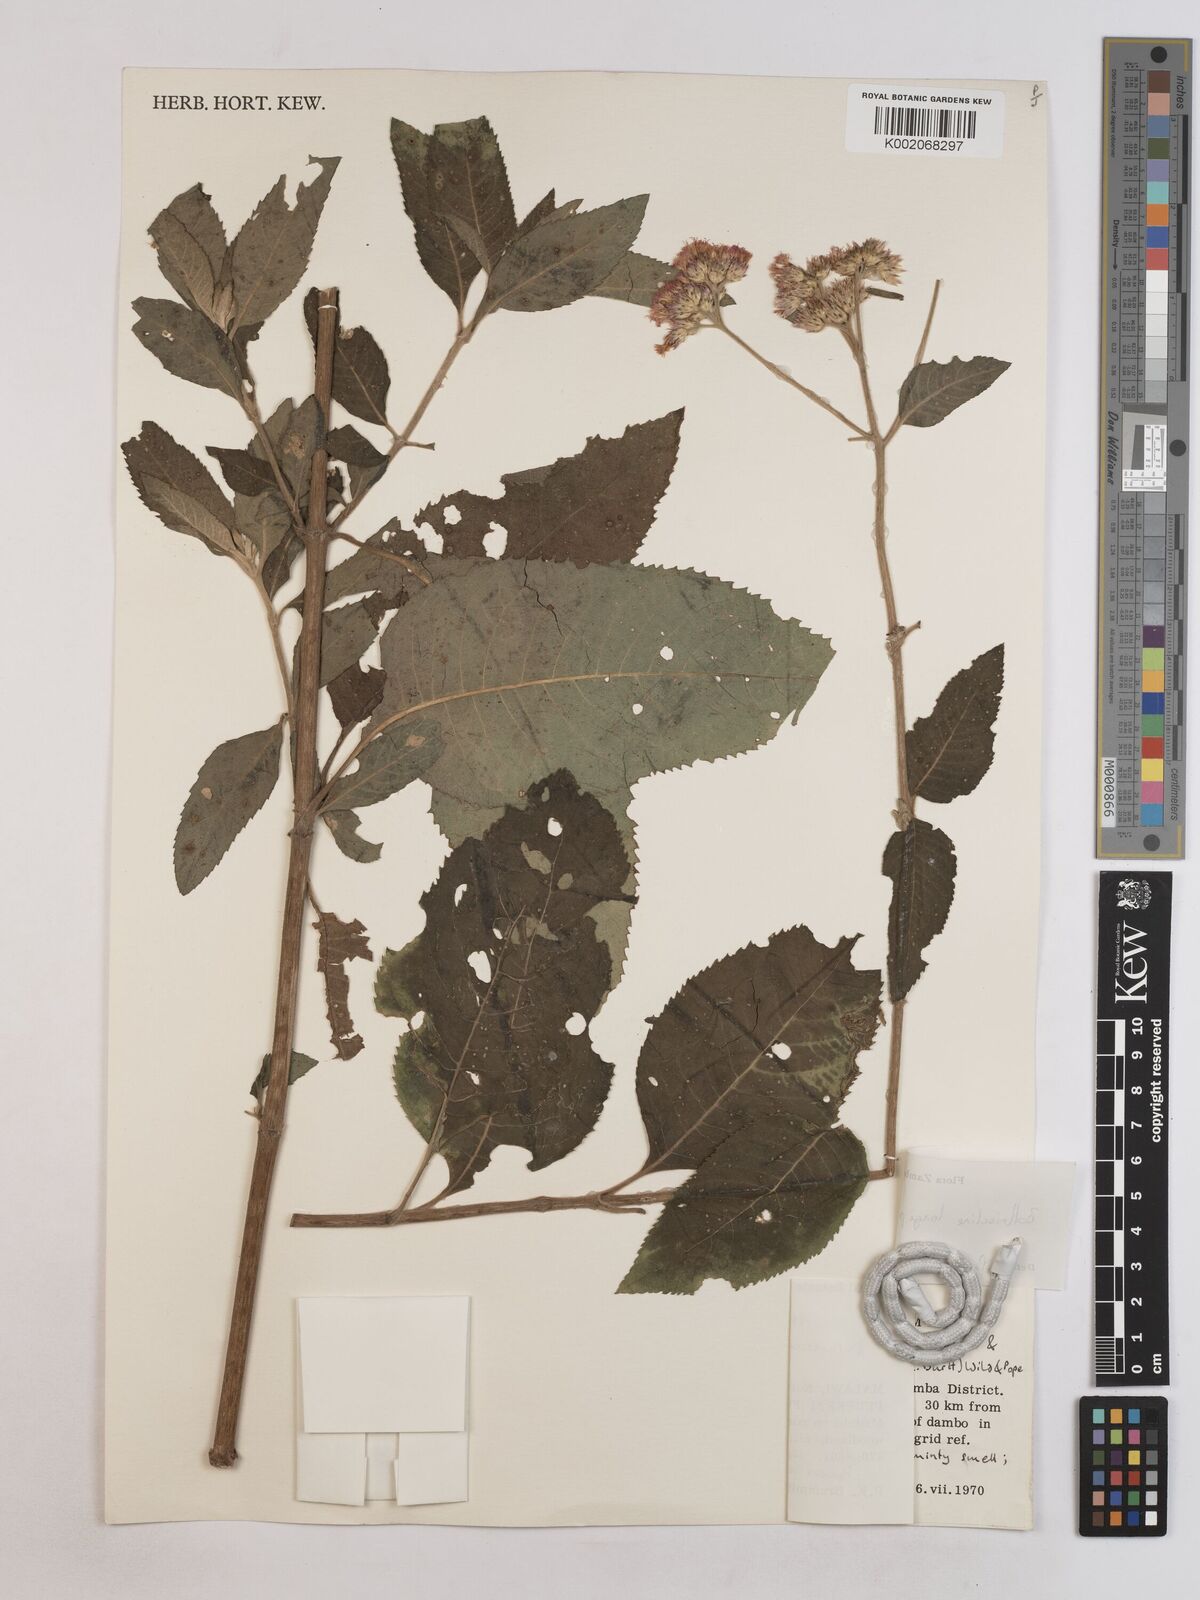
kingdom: Plantae
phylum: Tracheophyta
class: Magnoliopsida
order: Asterales
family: Asteraceae
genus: Bothriocline
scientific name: Bothriocline longipes
